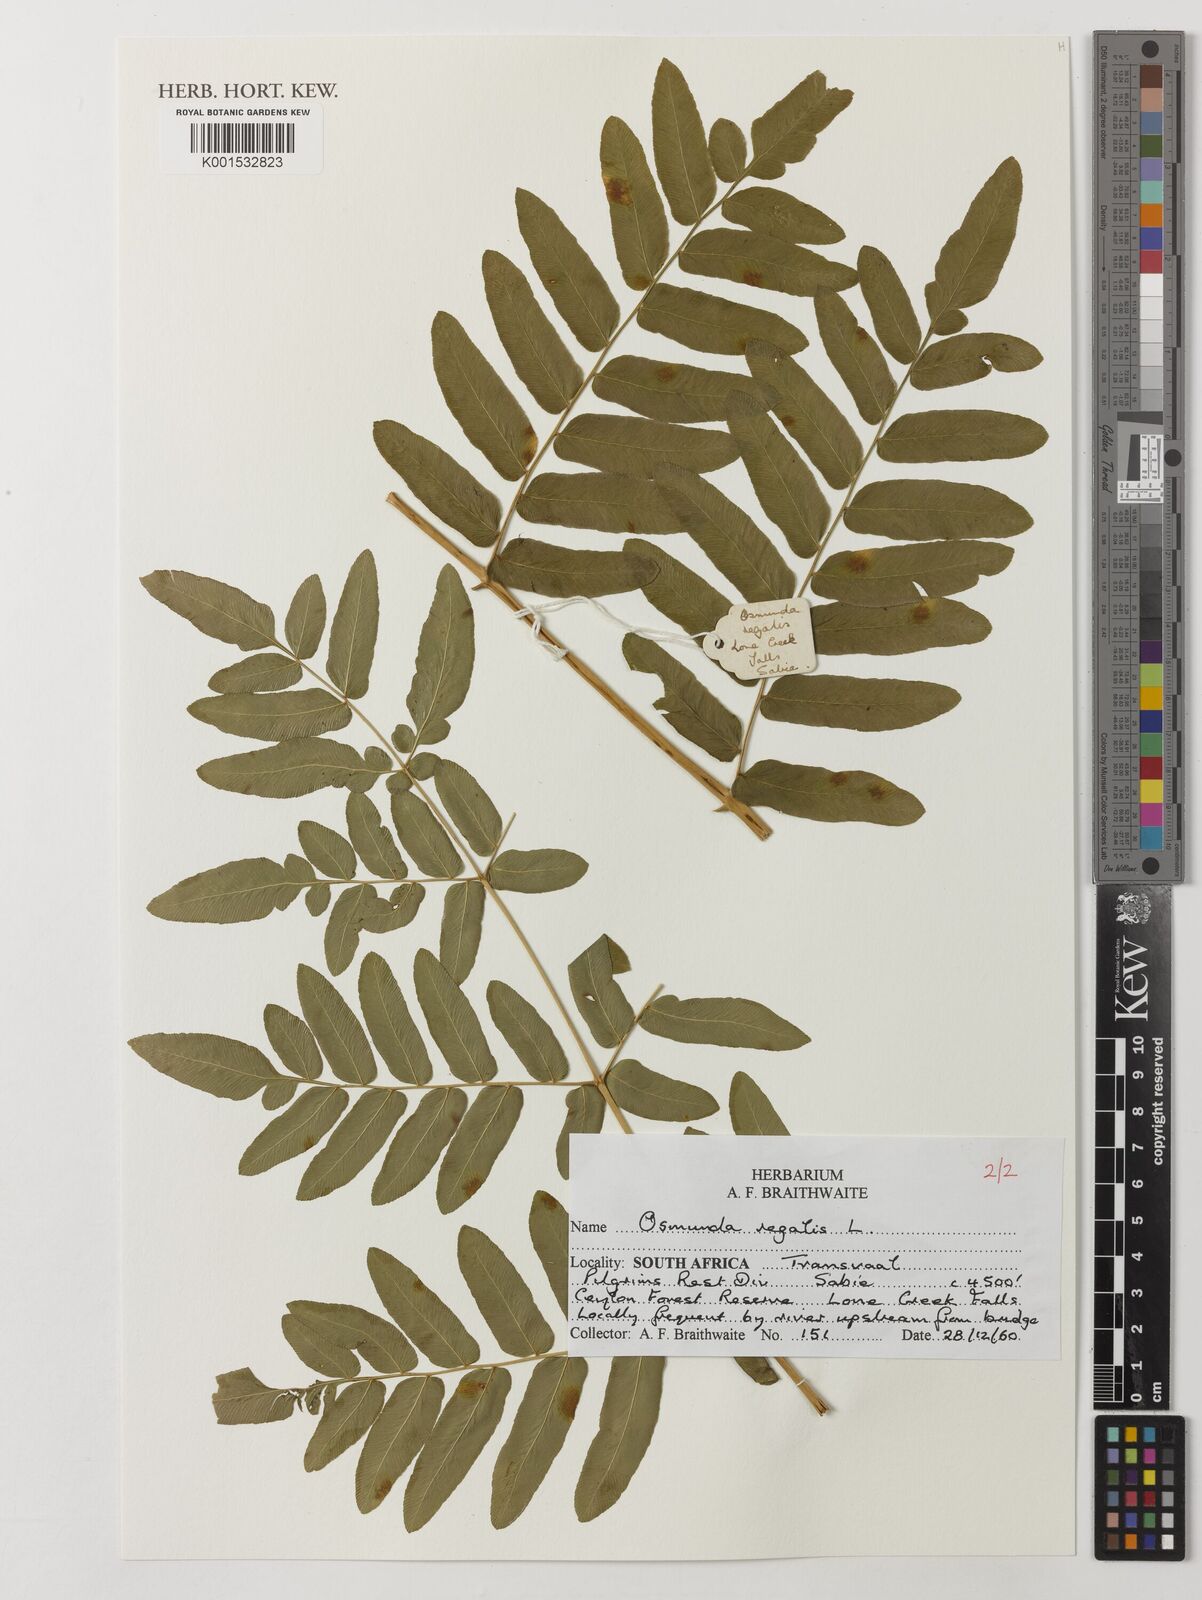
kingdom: Plantae
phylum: Tracheophyta
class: Polypodiopsida
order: Osmundales
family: Osmundaceae
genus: Osmunda
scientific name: Osmunda regalis
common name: Royal fern
